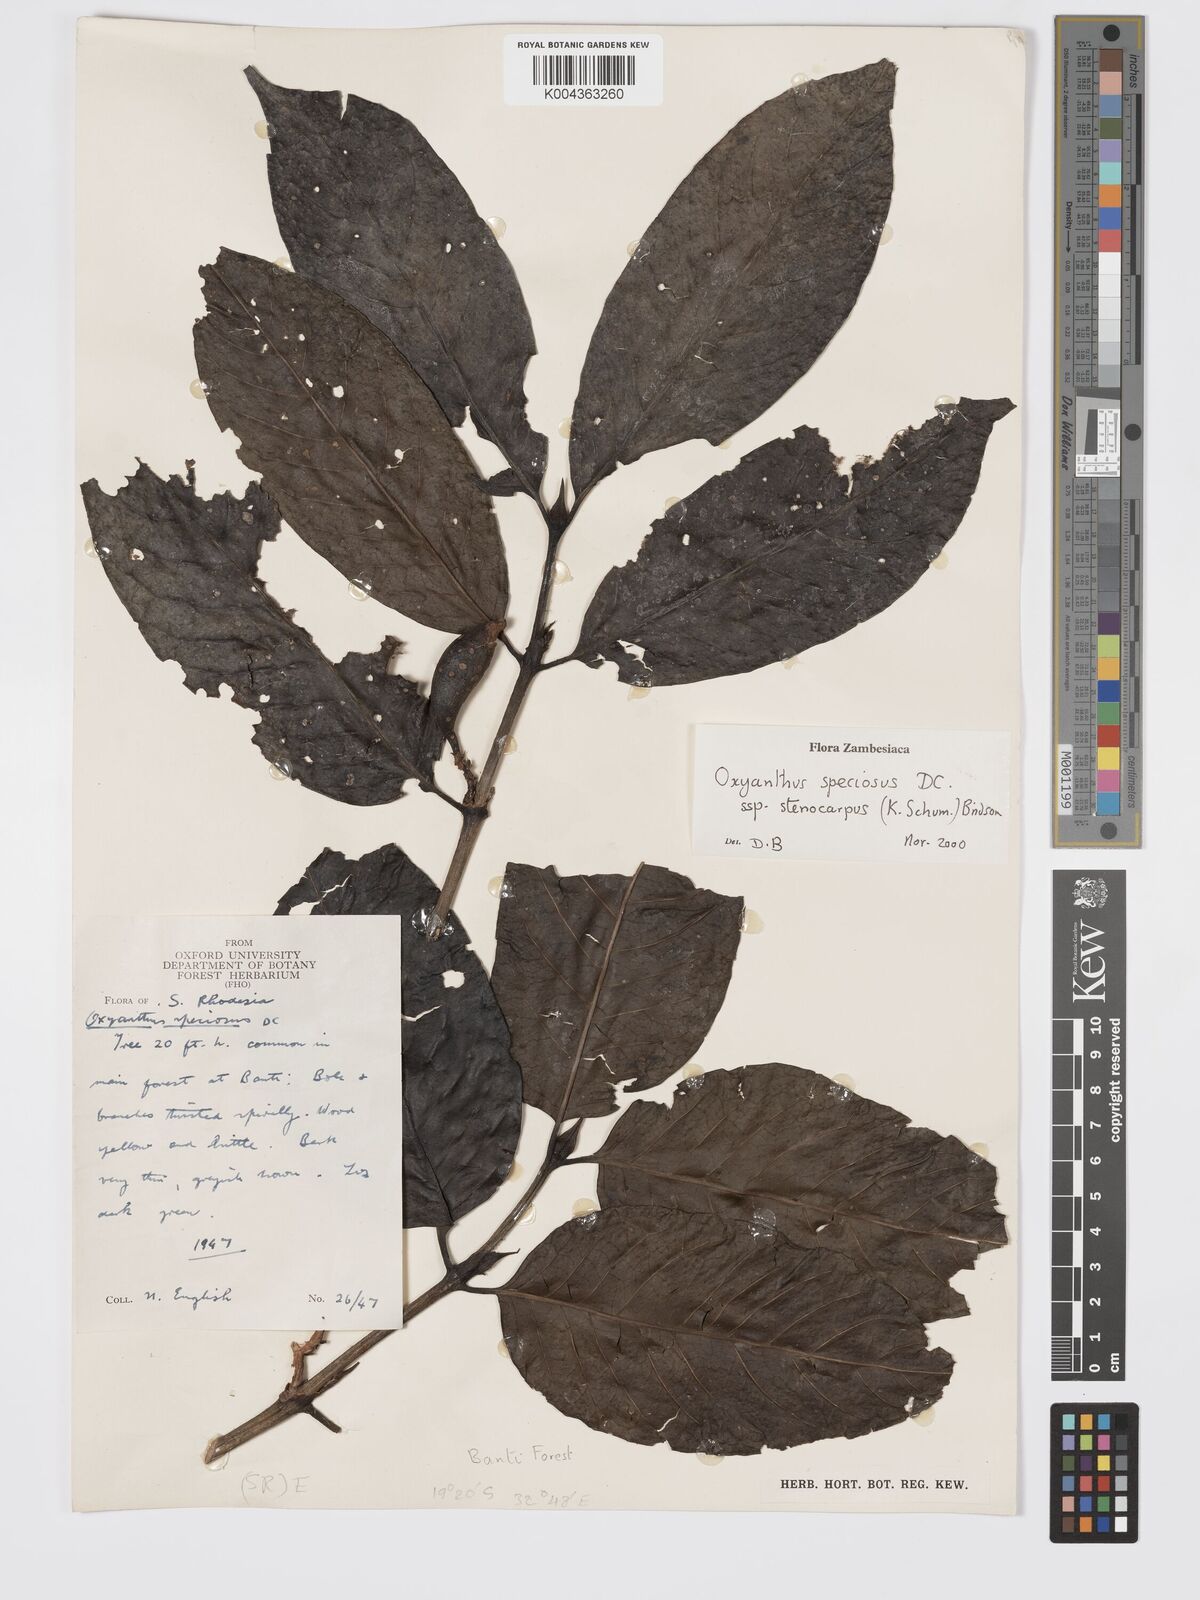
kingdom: Plantae
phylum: Tracheophyta
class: Magnoliopsida
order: Gentianales
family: Rubiaceae
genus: Oxyanthus
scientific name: Oxyanthus speciosus
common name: Whipstick loquat
